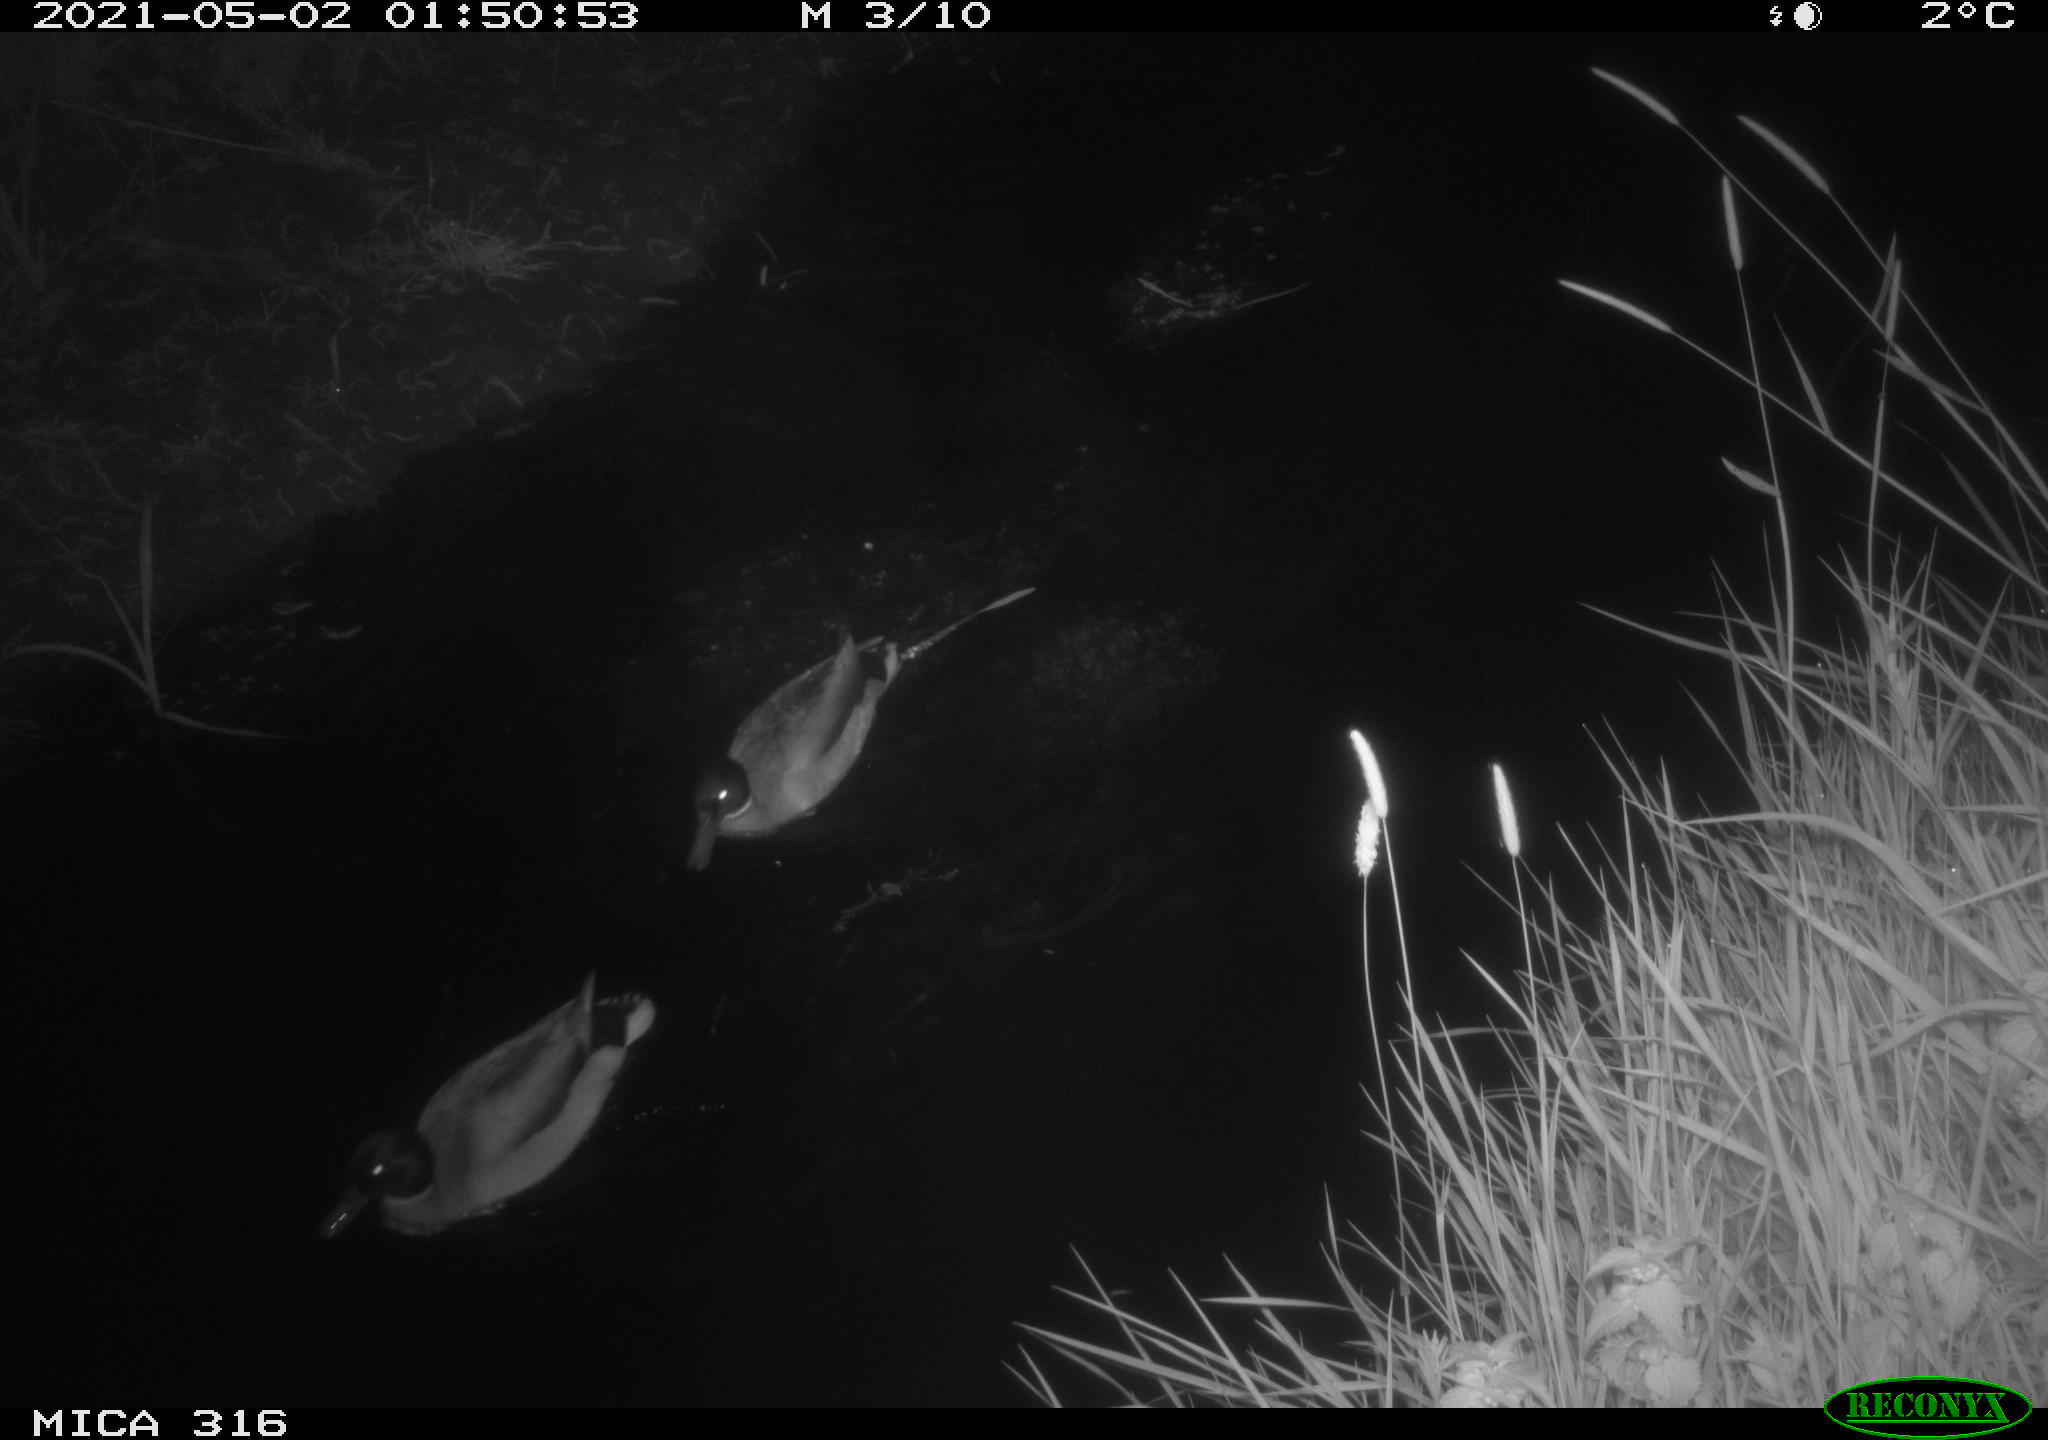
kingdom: Animalia
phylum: Chordata
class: Aves
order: Anseriformes
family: Anatidae
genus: Anas
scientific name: Anas platyrhynchos
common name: Mallard
